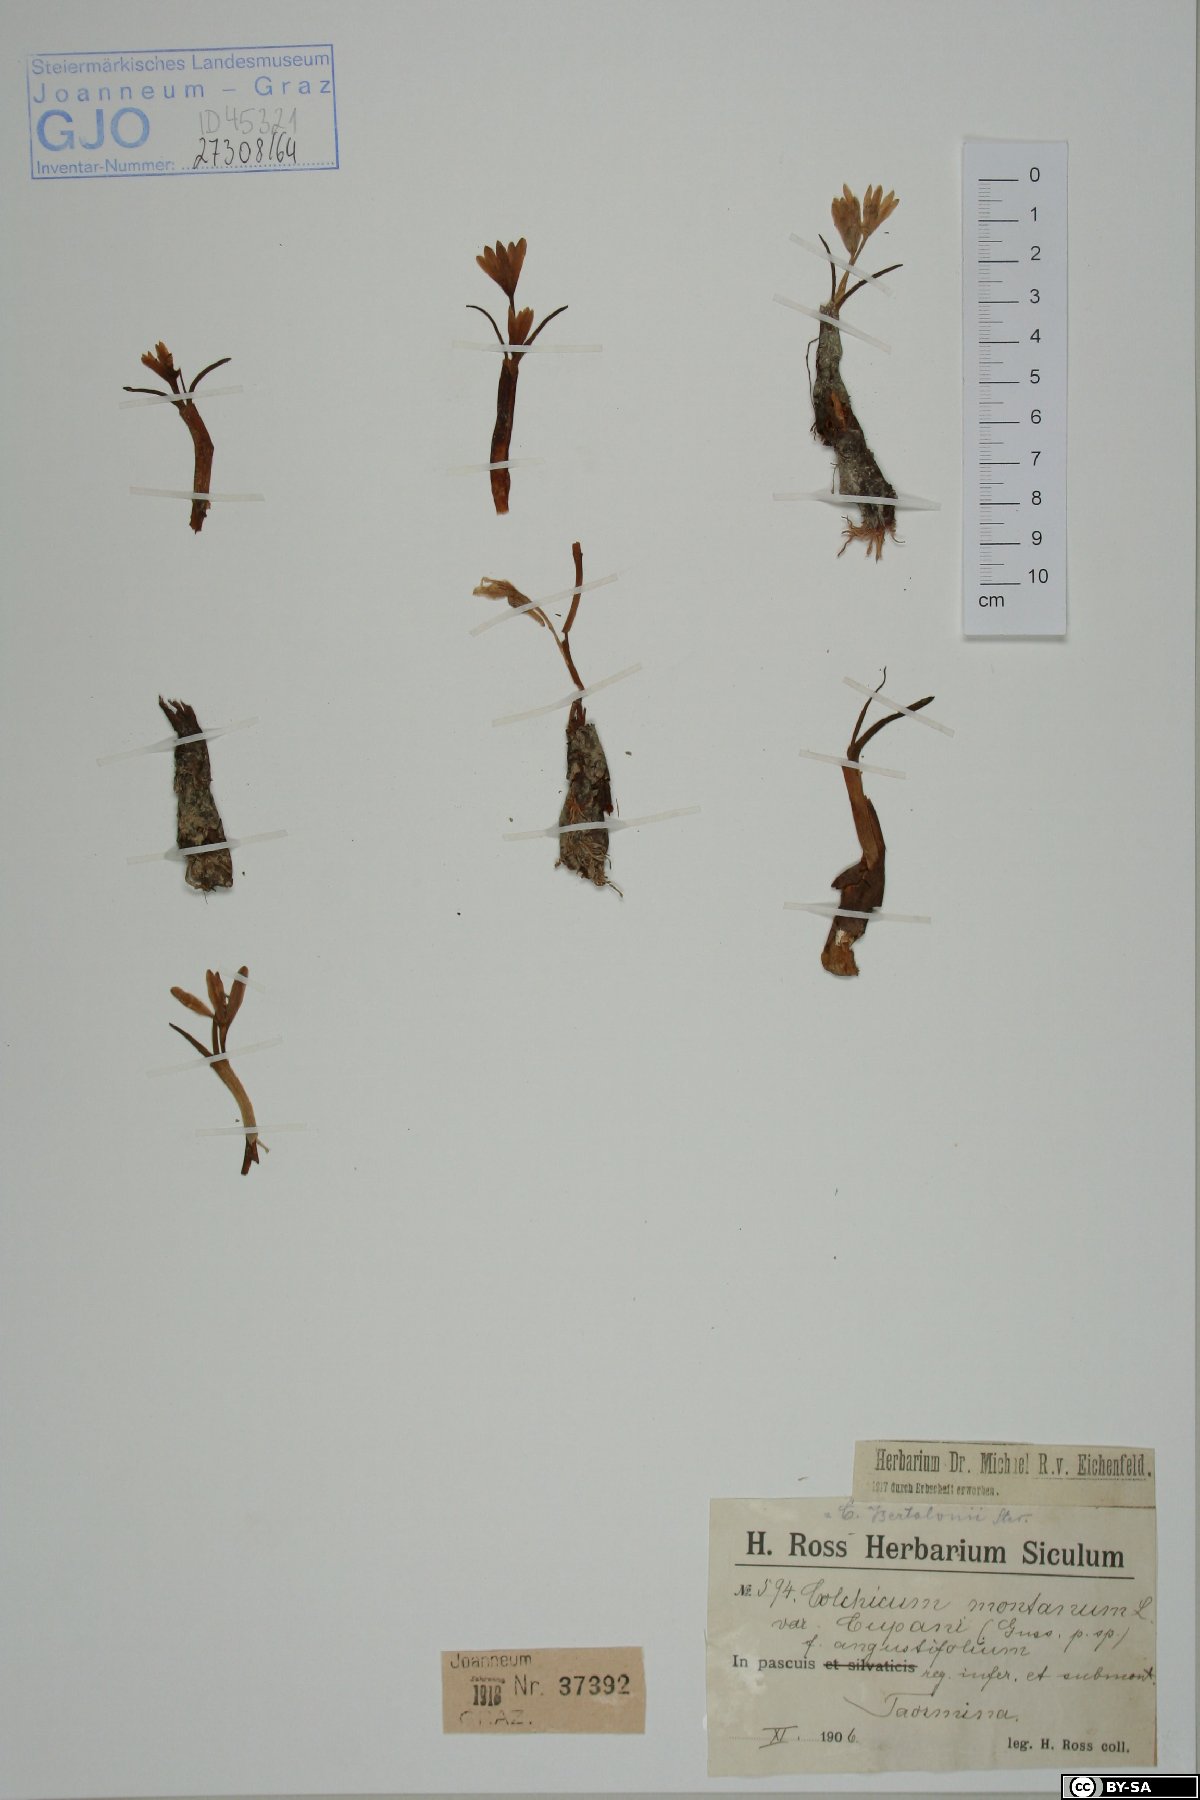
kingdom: Plantae
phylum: Tracheophyta
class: Liliopsida
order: Liliales
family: Colchicaceae
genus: Colchicum
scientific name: Colchicum cupanii
